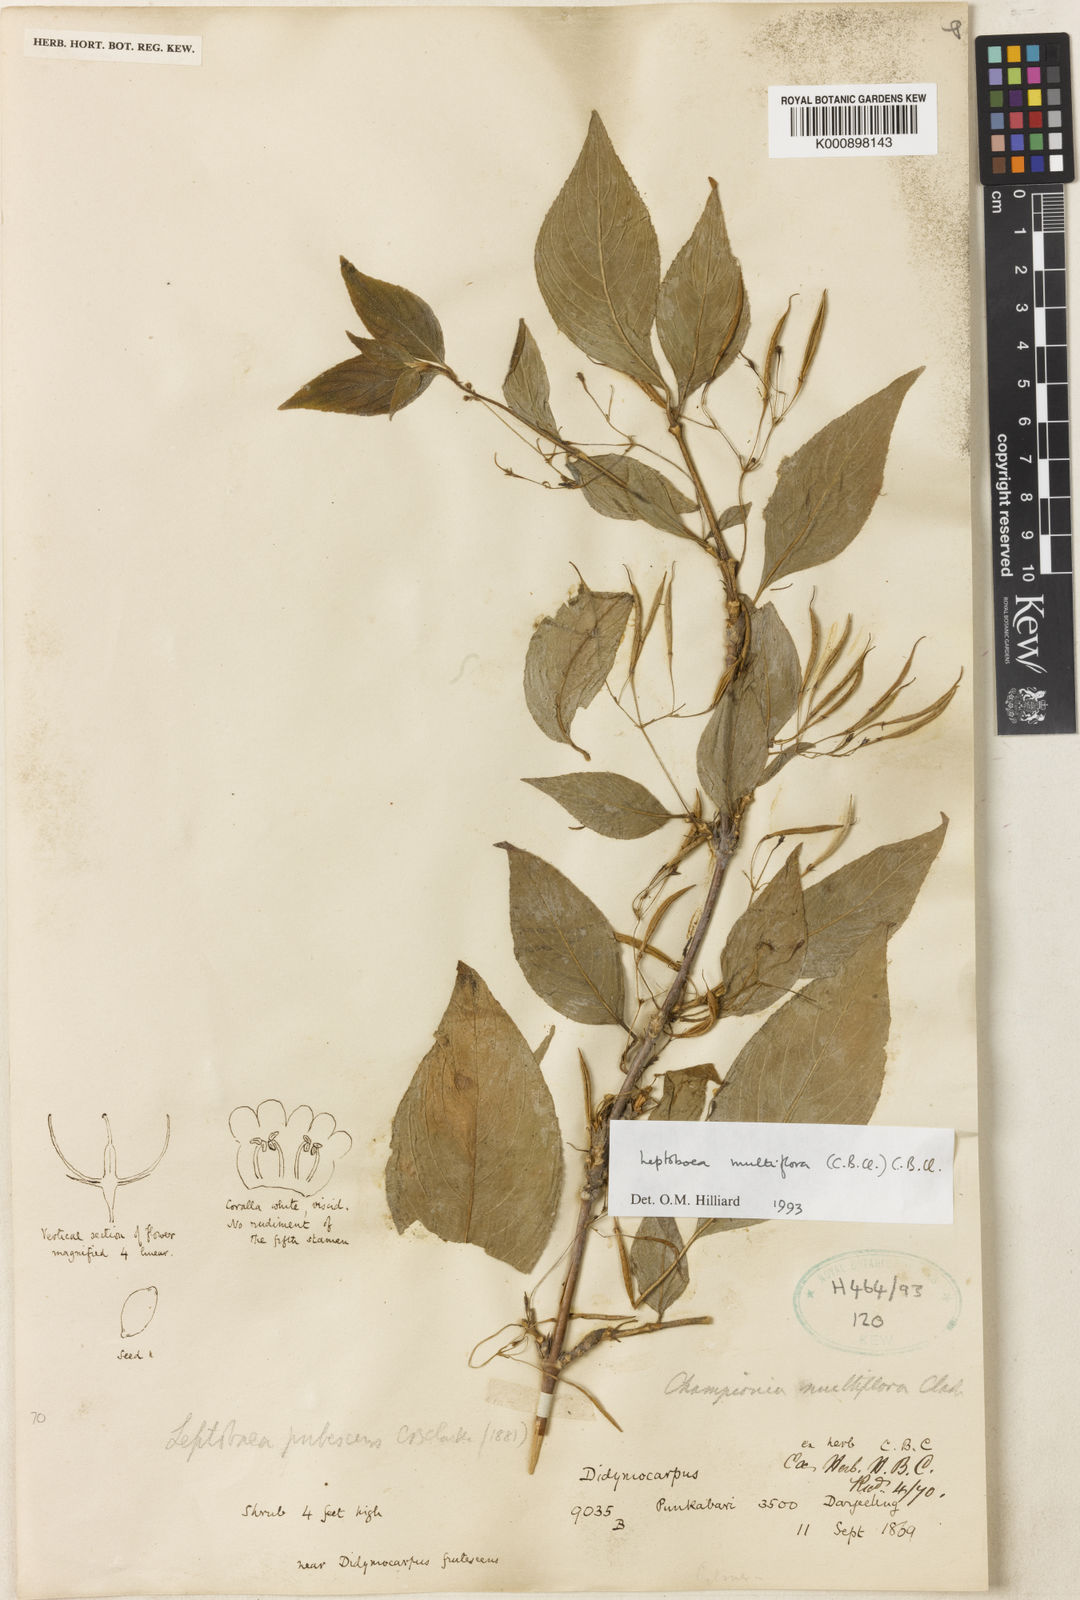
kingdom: Plantae
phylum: Tracheophyta
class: Magnoliopsida
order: Lamiales
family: Gesneriaceae
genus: Leptoboea
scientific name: Leptoboea multiflora
